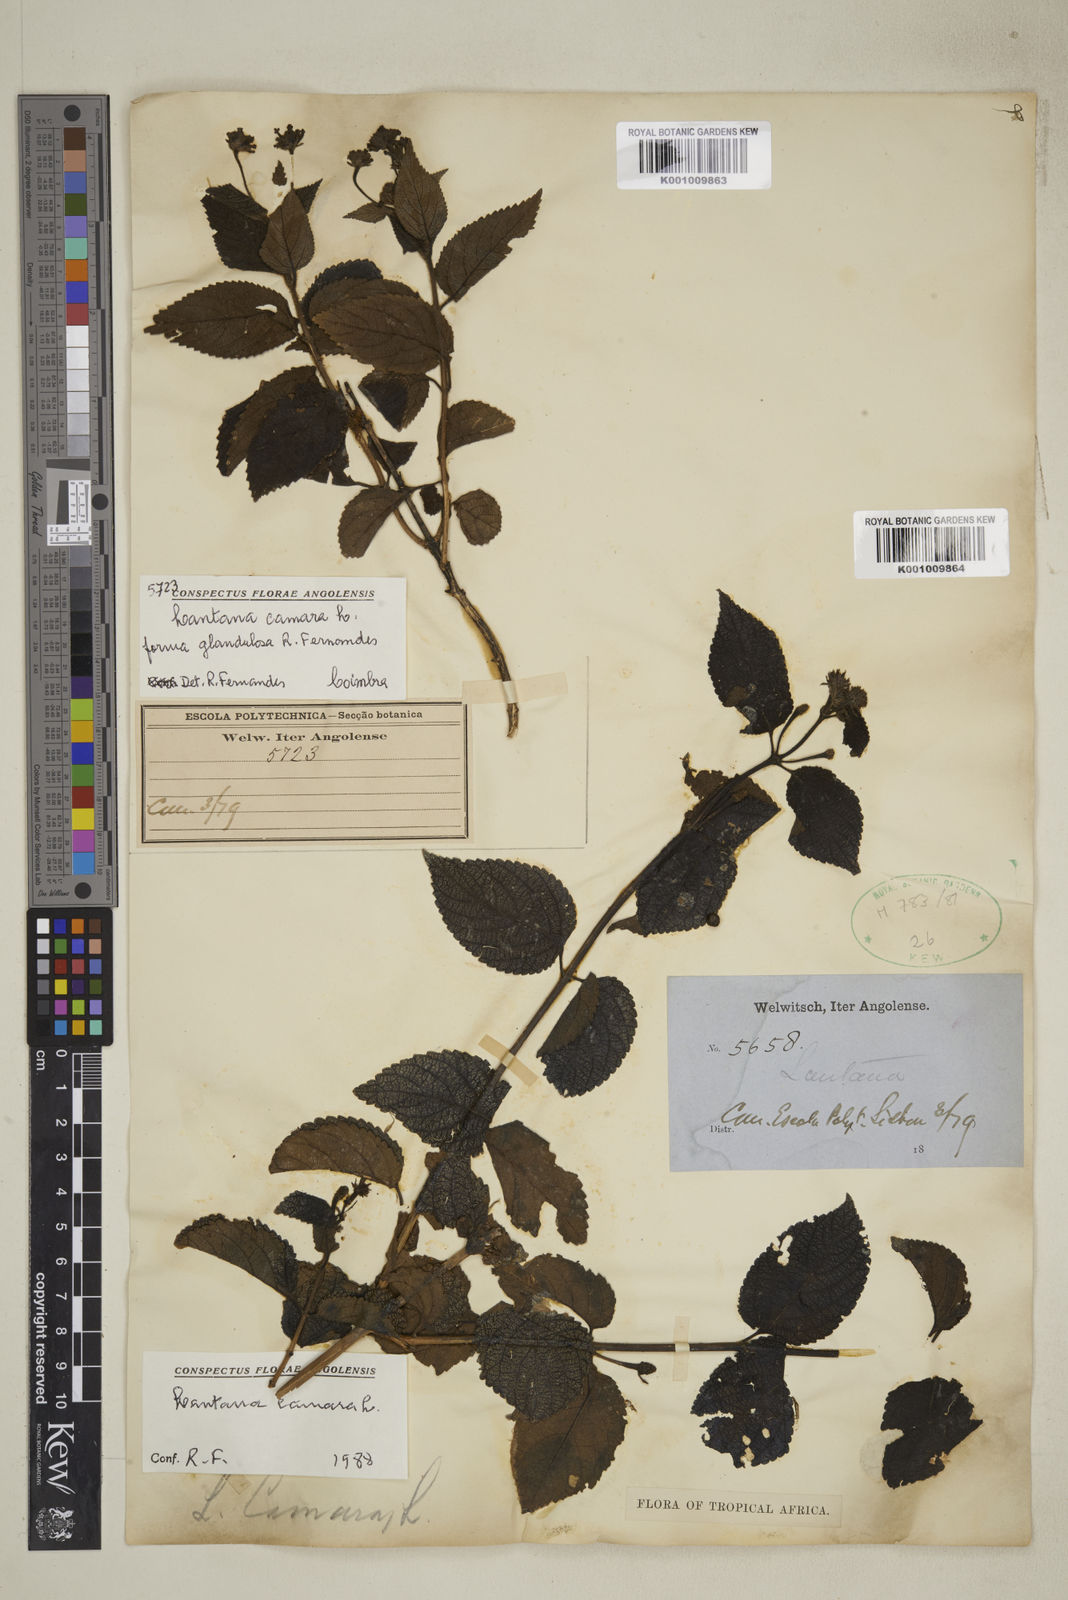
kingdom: Plantae
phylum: Tracheophyta
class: Magnoliopsida
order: Lamiales
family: Verbenaceae
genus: Lantana
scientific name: Lantana camara
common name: Lantana
